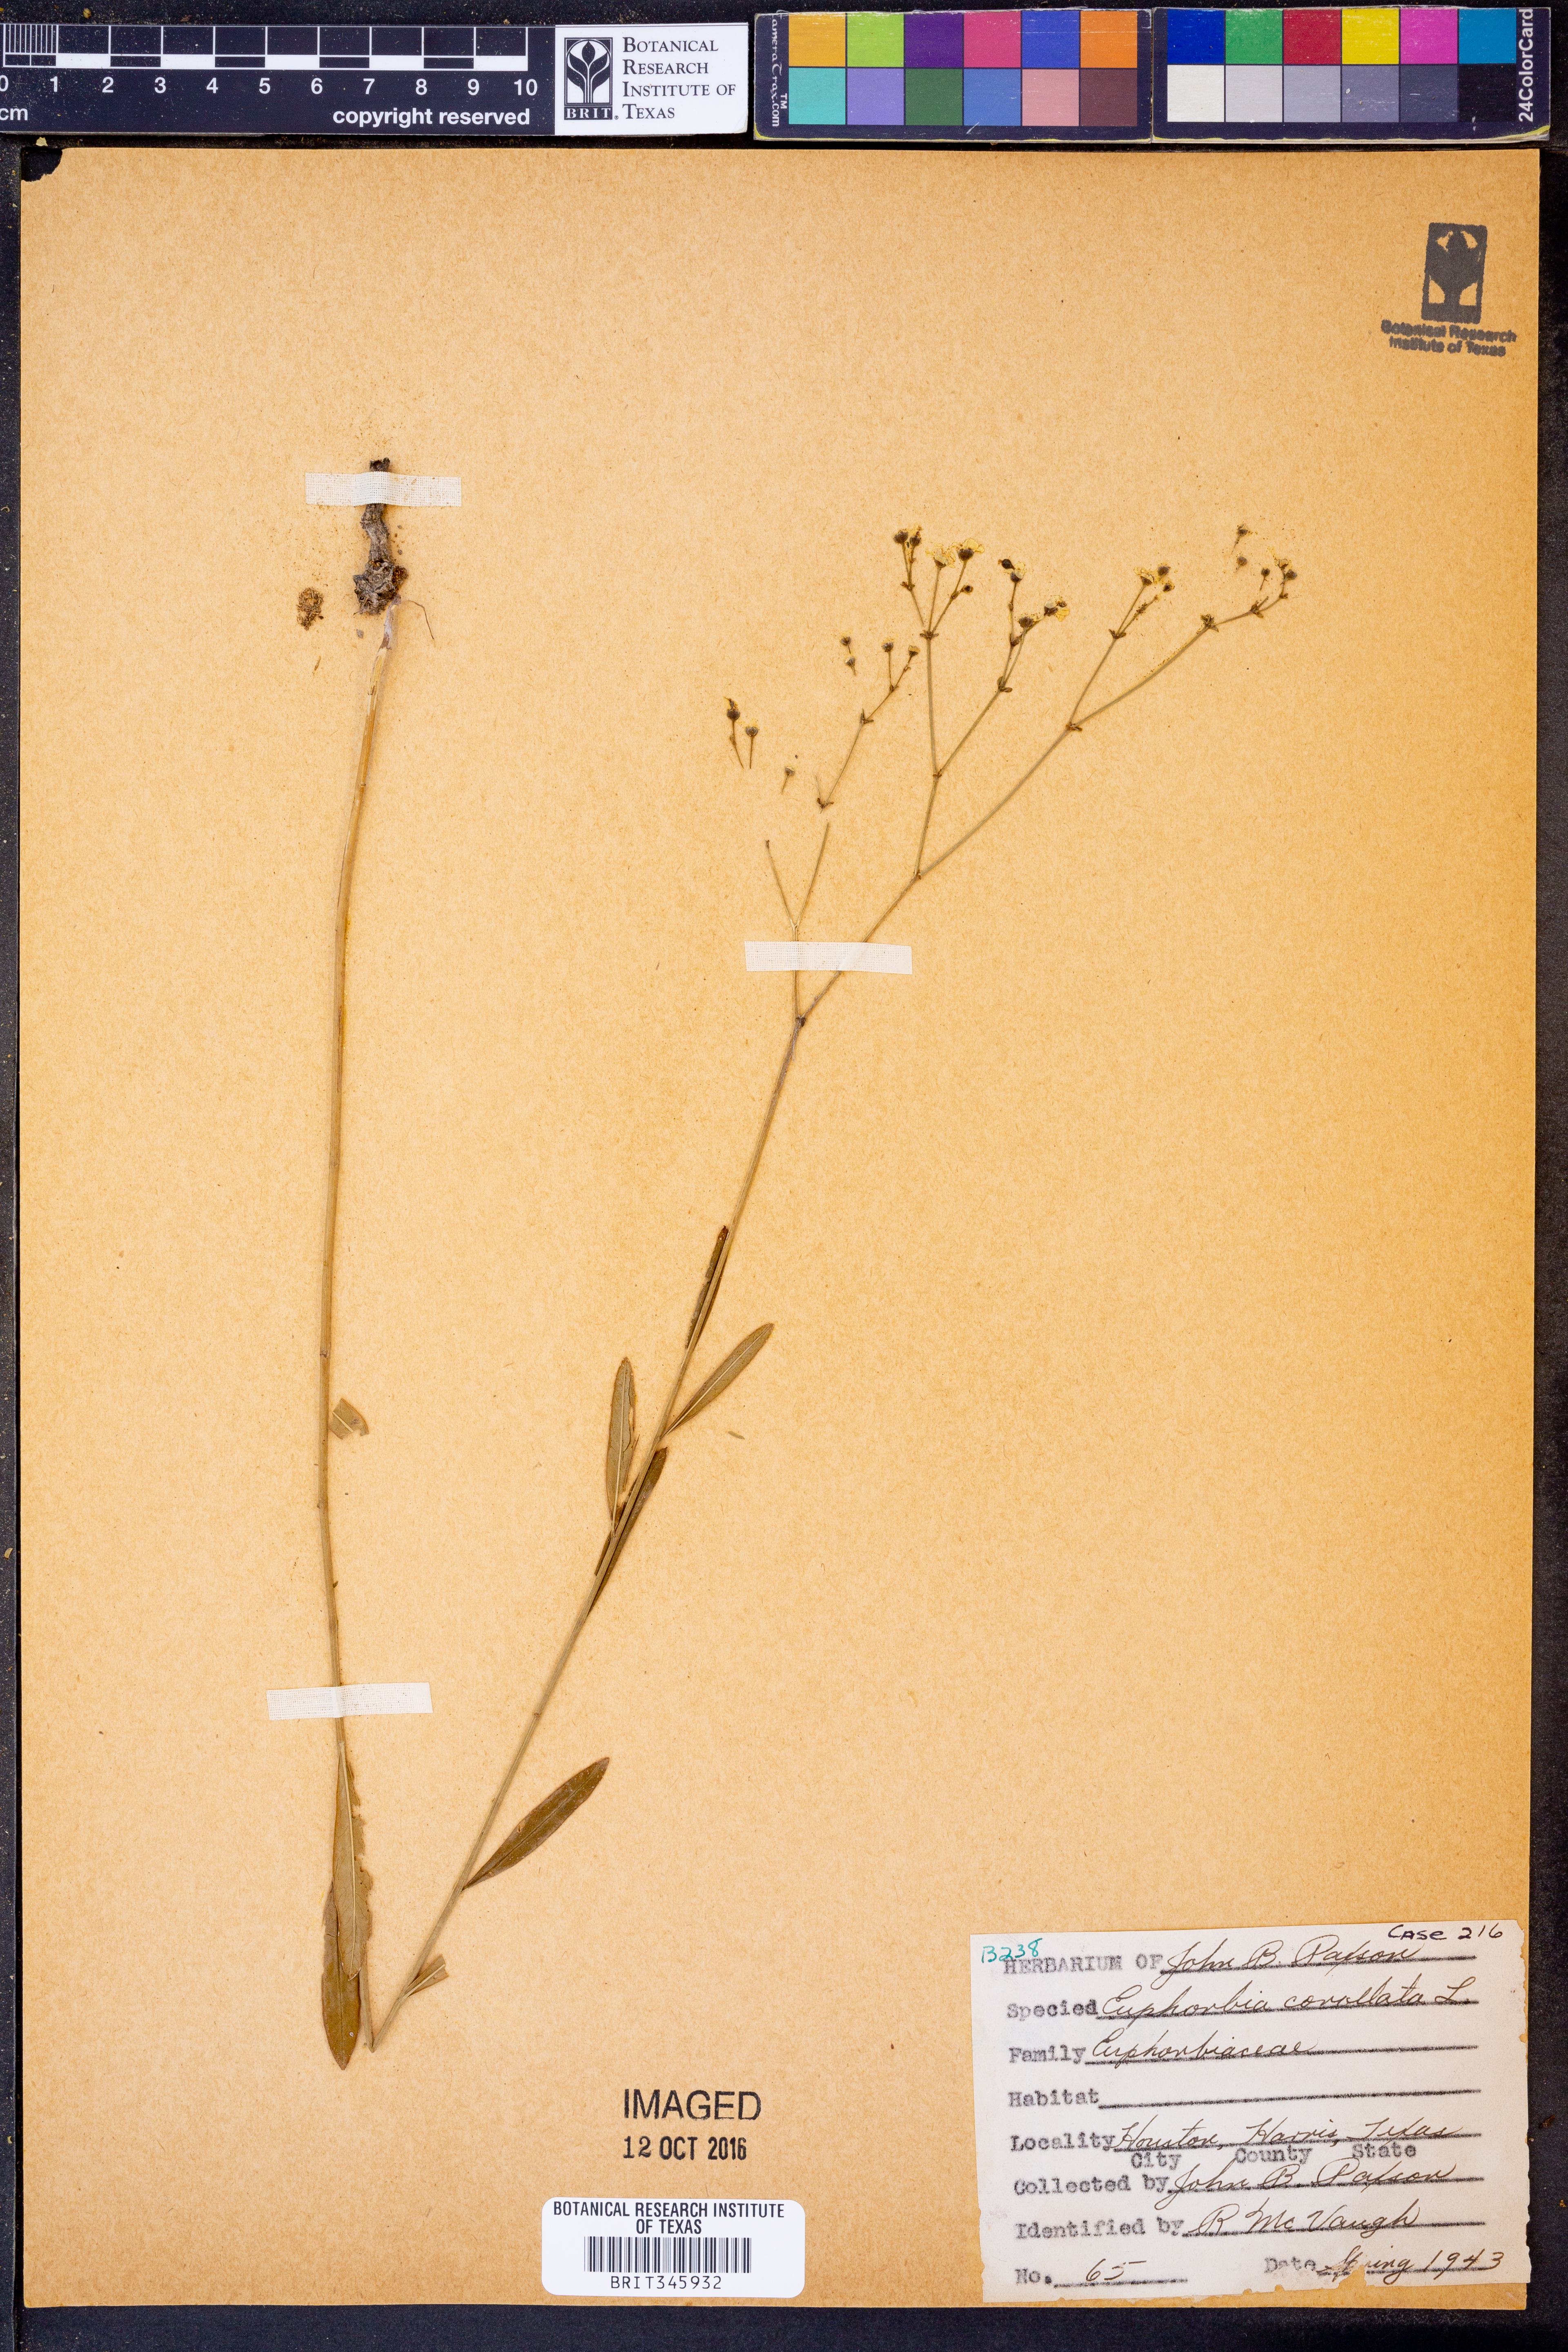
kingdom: Plantae
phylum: Tracheophyta
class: Magnoliopsida
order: Malpighiales
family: Euphorbiaceae
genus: Euphorbia
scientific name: Euphorbia corollata
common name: Flowering spurge
